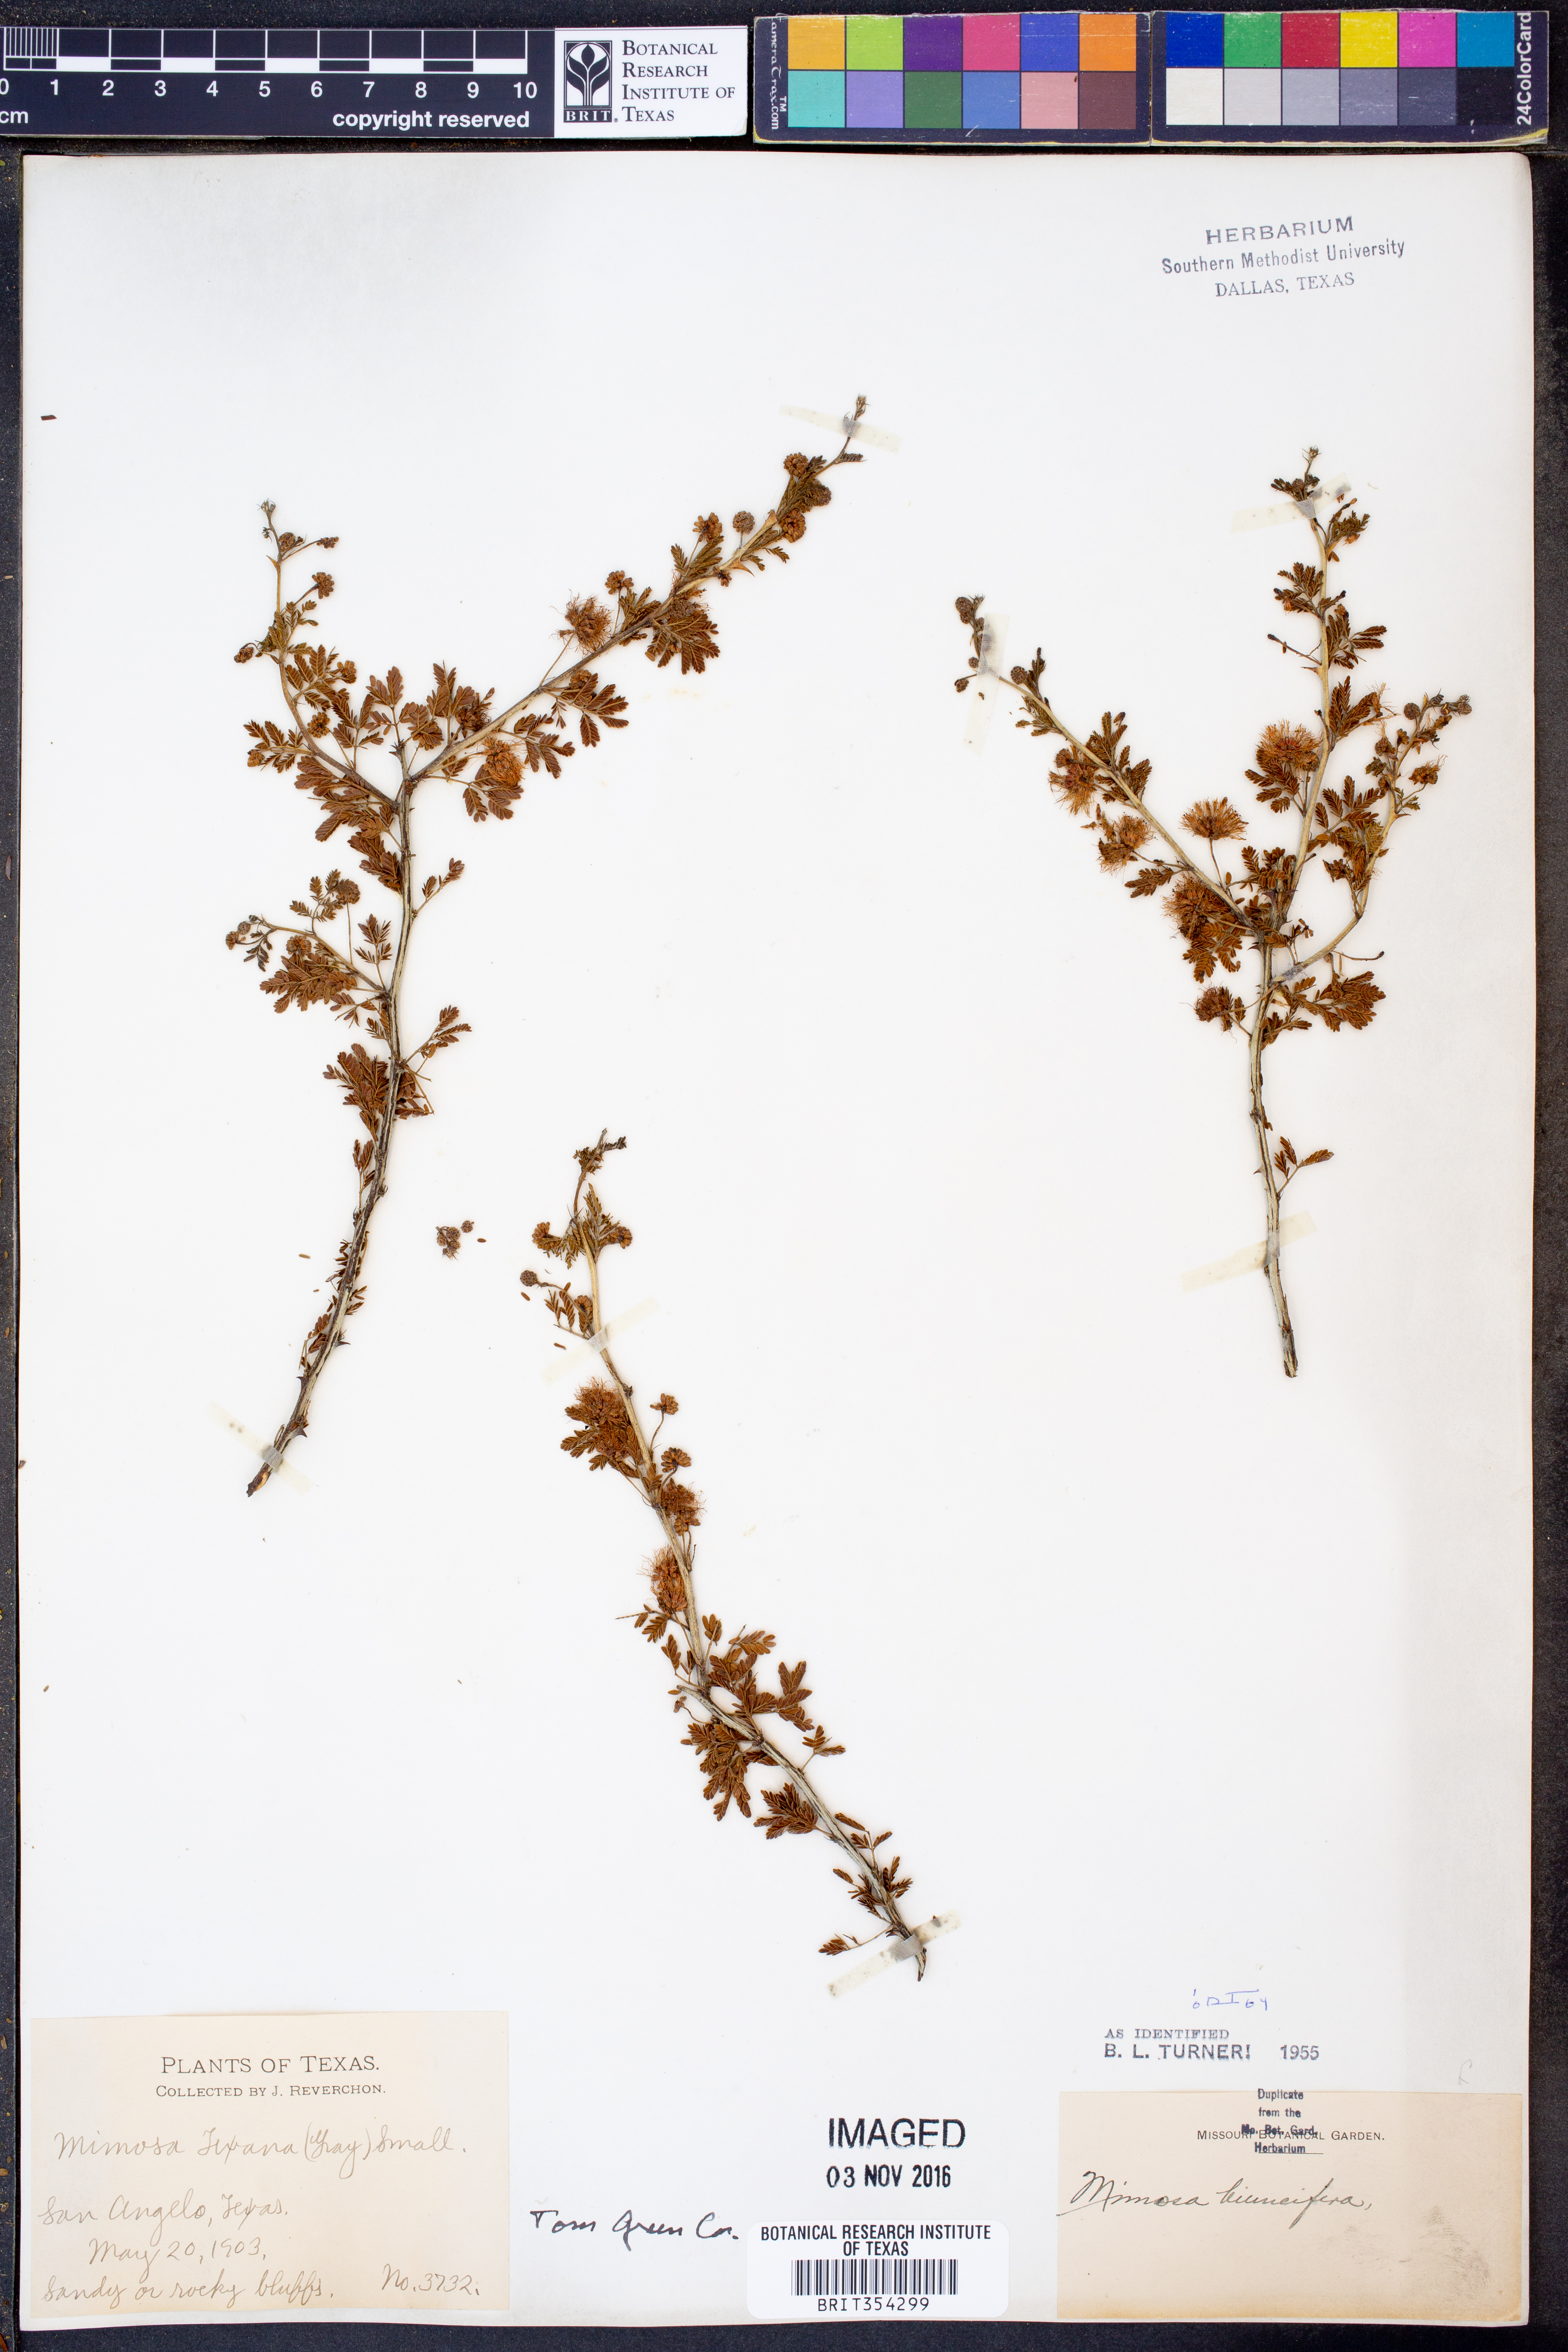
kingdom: Plantae
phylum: Tracheophyta
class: Magnoliopsida
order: Fabales
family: Fabaceae
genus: Mimosa
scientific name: Mimosa biuncifera
